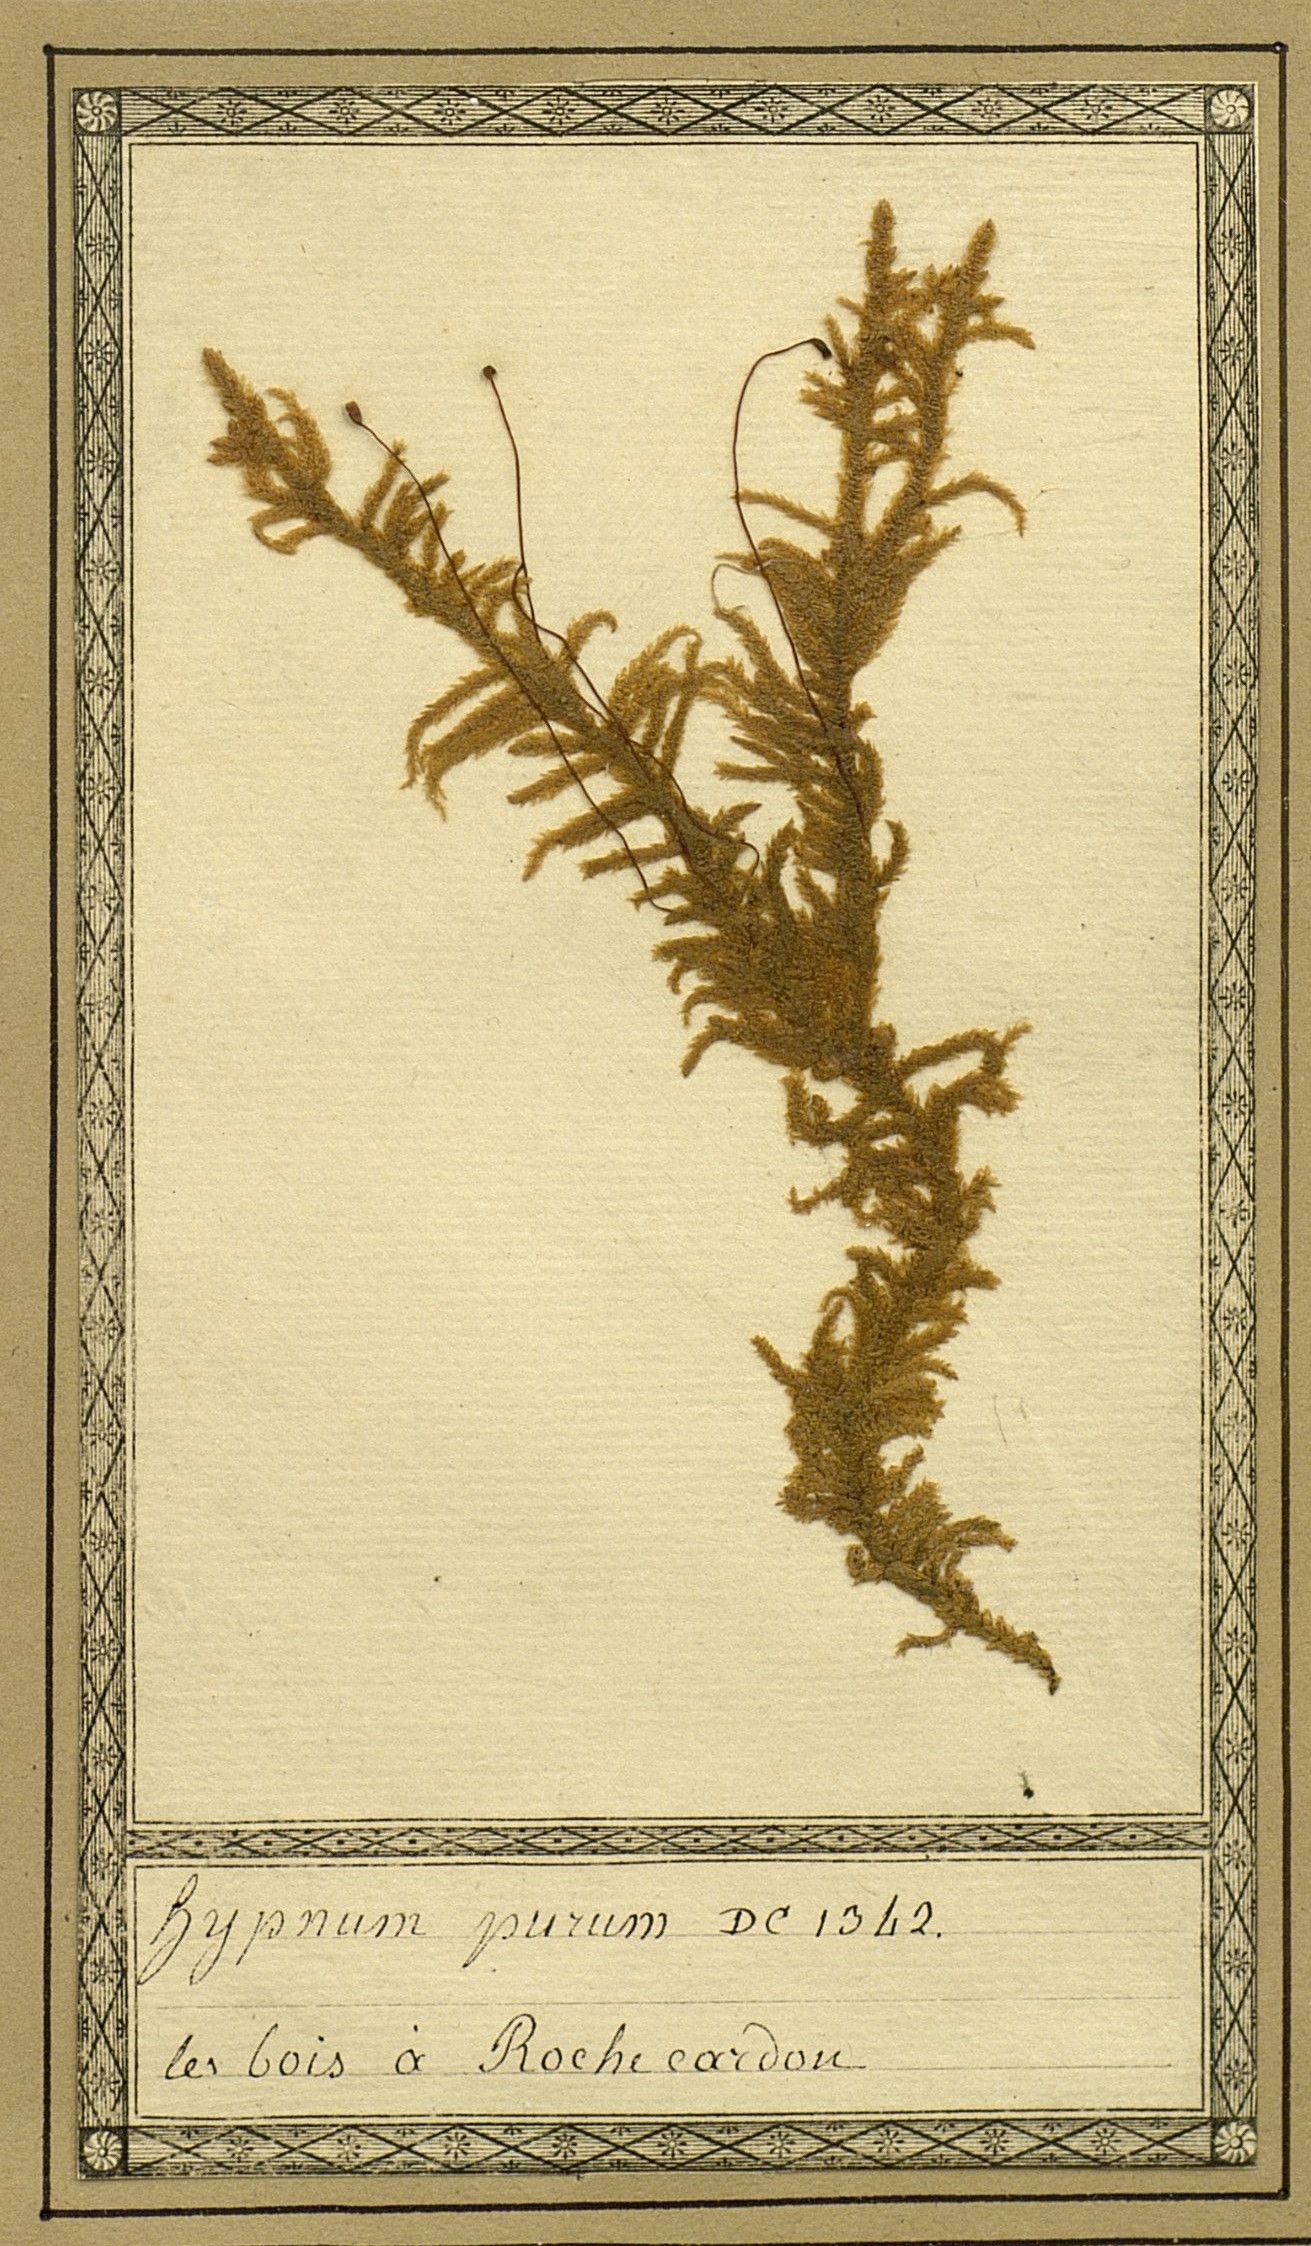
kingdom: Plantae
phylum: Bryophyta
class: Bryopsida
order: Hypnales
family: Brachytheciaceae
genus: Pseudoscleropodium
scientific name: Pseudoscleropodium purum
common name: Neat feather-moss
